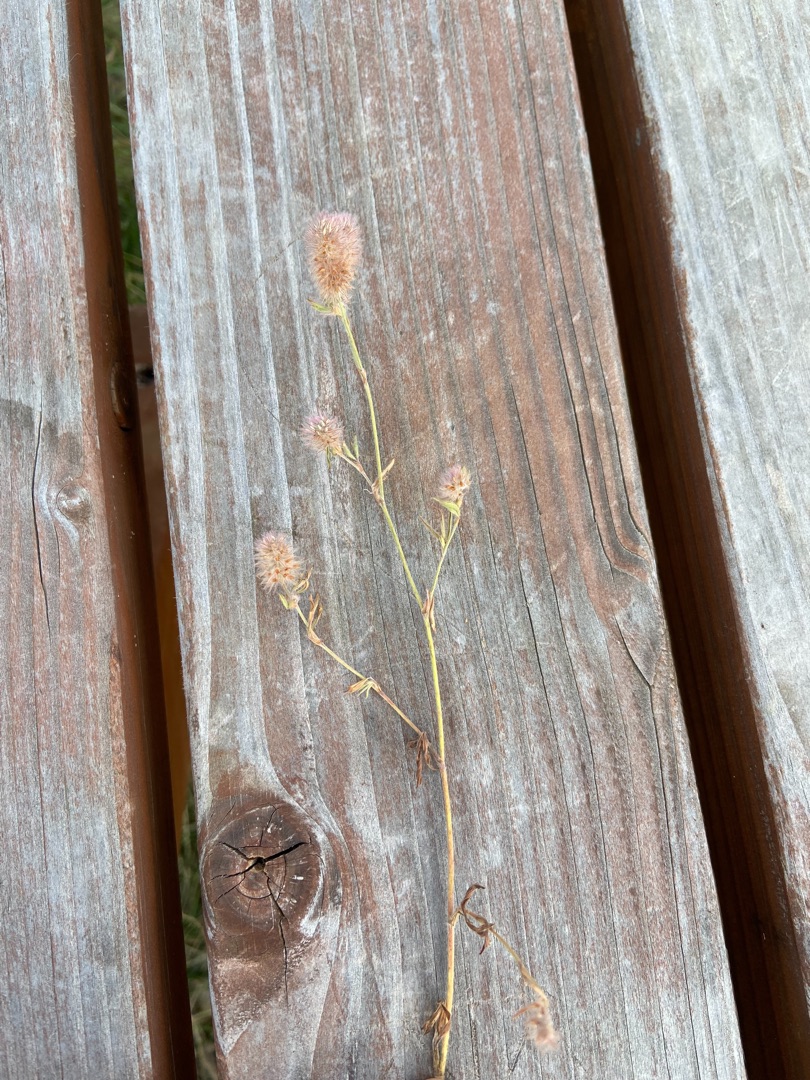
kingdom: Plantae
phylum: Tracheophyta
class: Magnoliopsida
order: Fabales
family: Fabaceae
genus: Trifolium
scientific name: Trifolium arvense
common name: Hare-kløver
